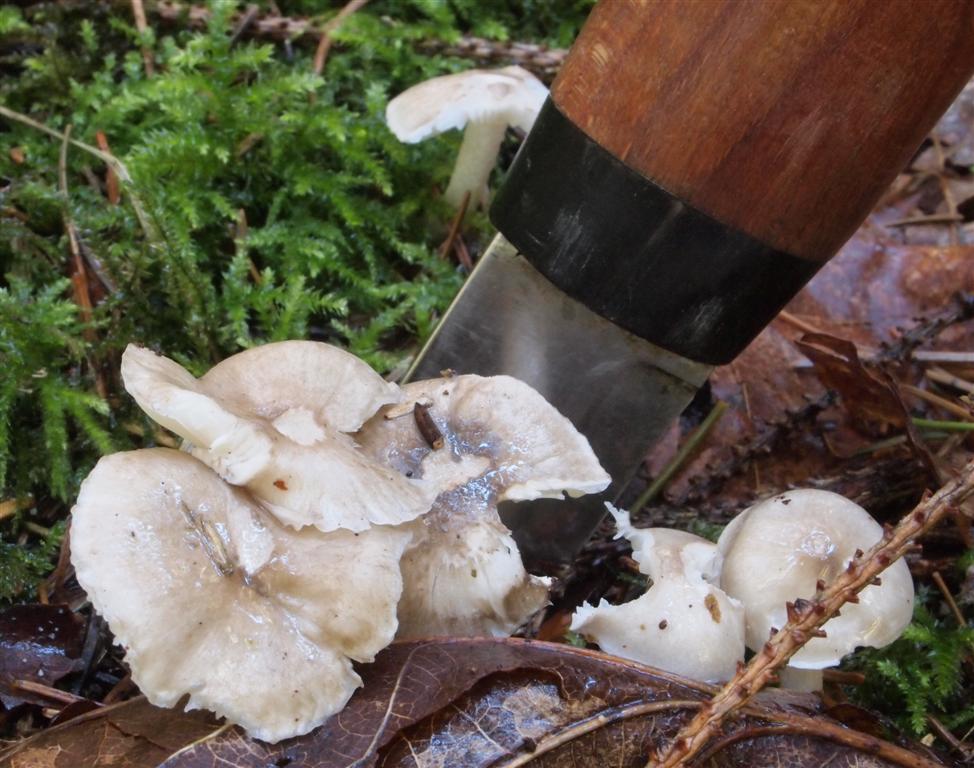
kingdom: Fungi
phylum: Basidiomycota
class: Agaricomycetes
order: Agaricales
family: Hygrophoraceae
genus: Hygrophorus
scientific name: Hygrophorus pustulatus
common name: mørkprikket sneglehat
